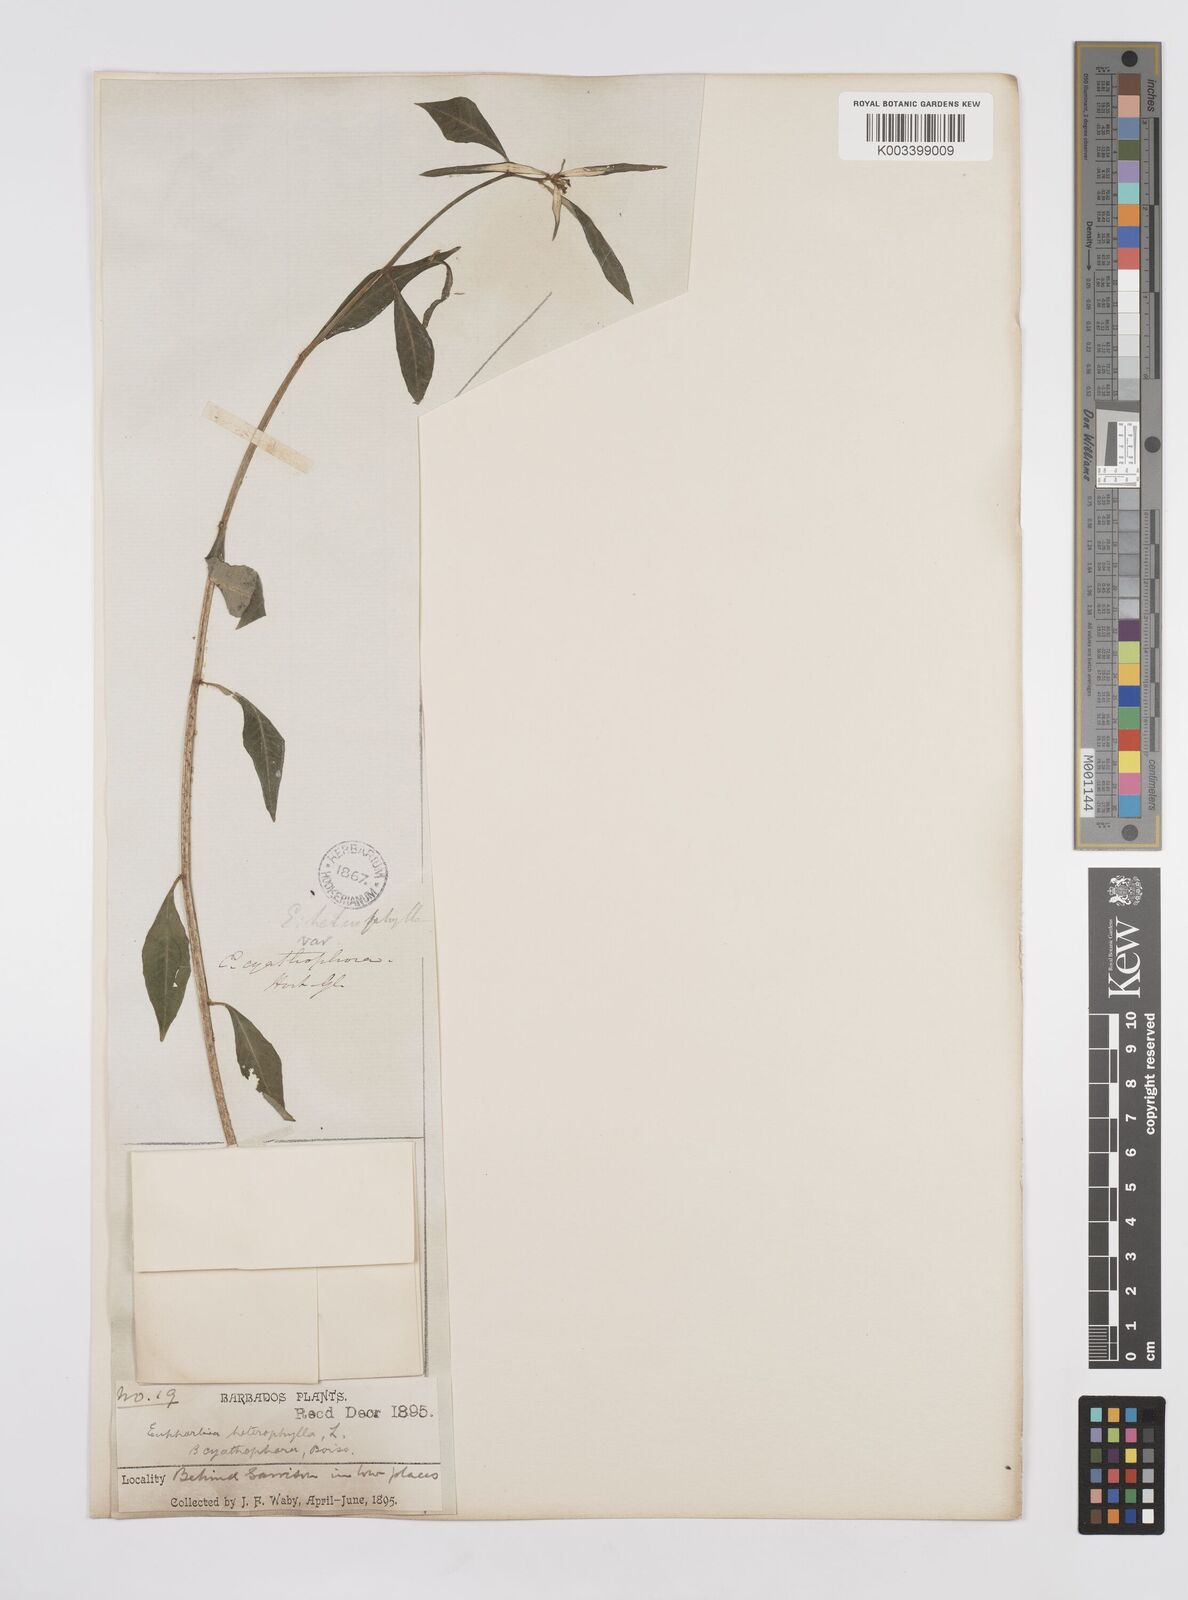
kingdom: Plantae
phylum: Tracheophyta
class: Magnoliopsida
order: Malpighiales
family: Euphorbiaceae
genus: Euphorbia
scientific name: Euphorbia heterophylla
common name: Mexican fireplant
